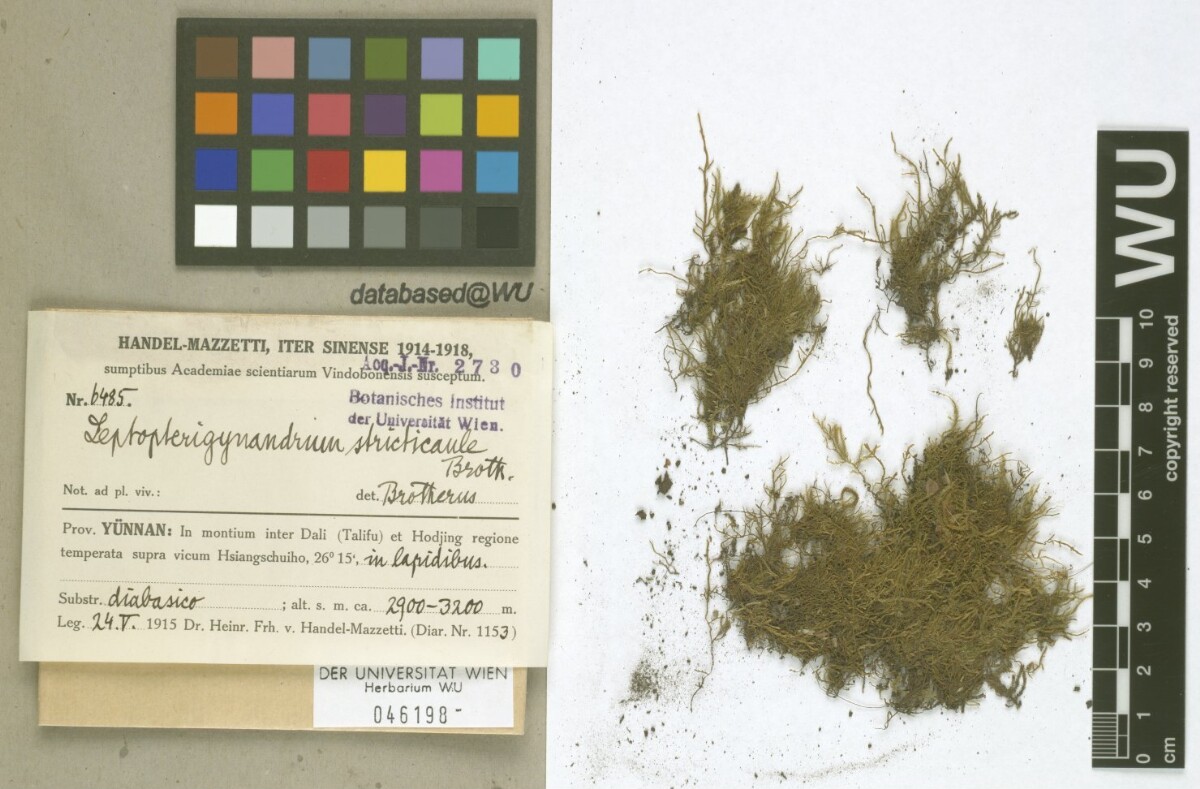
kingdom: Plantae
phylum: Bryophyta
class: Bryopsida
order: Hypnales
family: Taxiphyllaceae
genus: Leptopterigynandrum
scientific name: Leptopterigynandrum stricticaule
